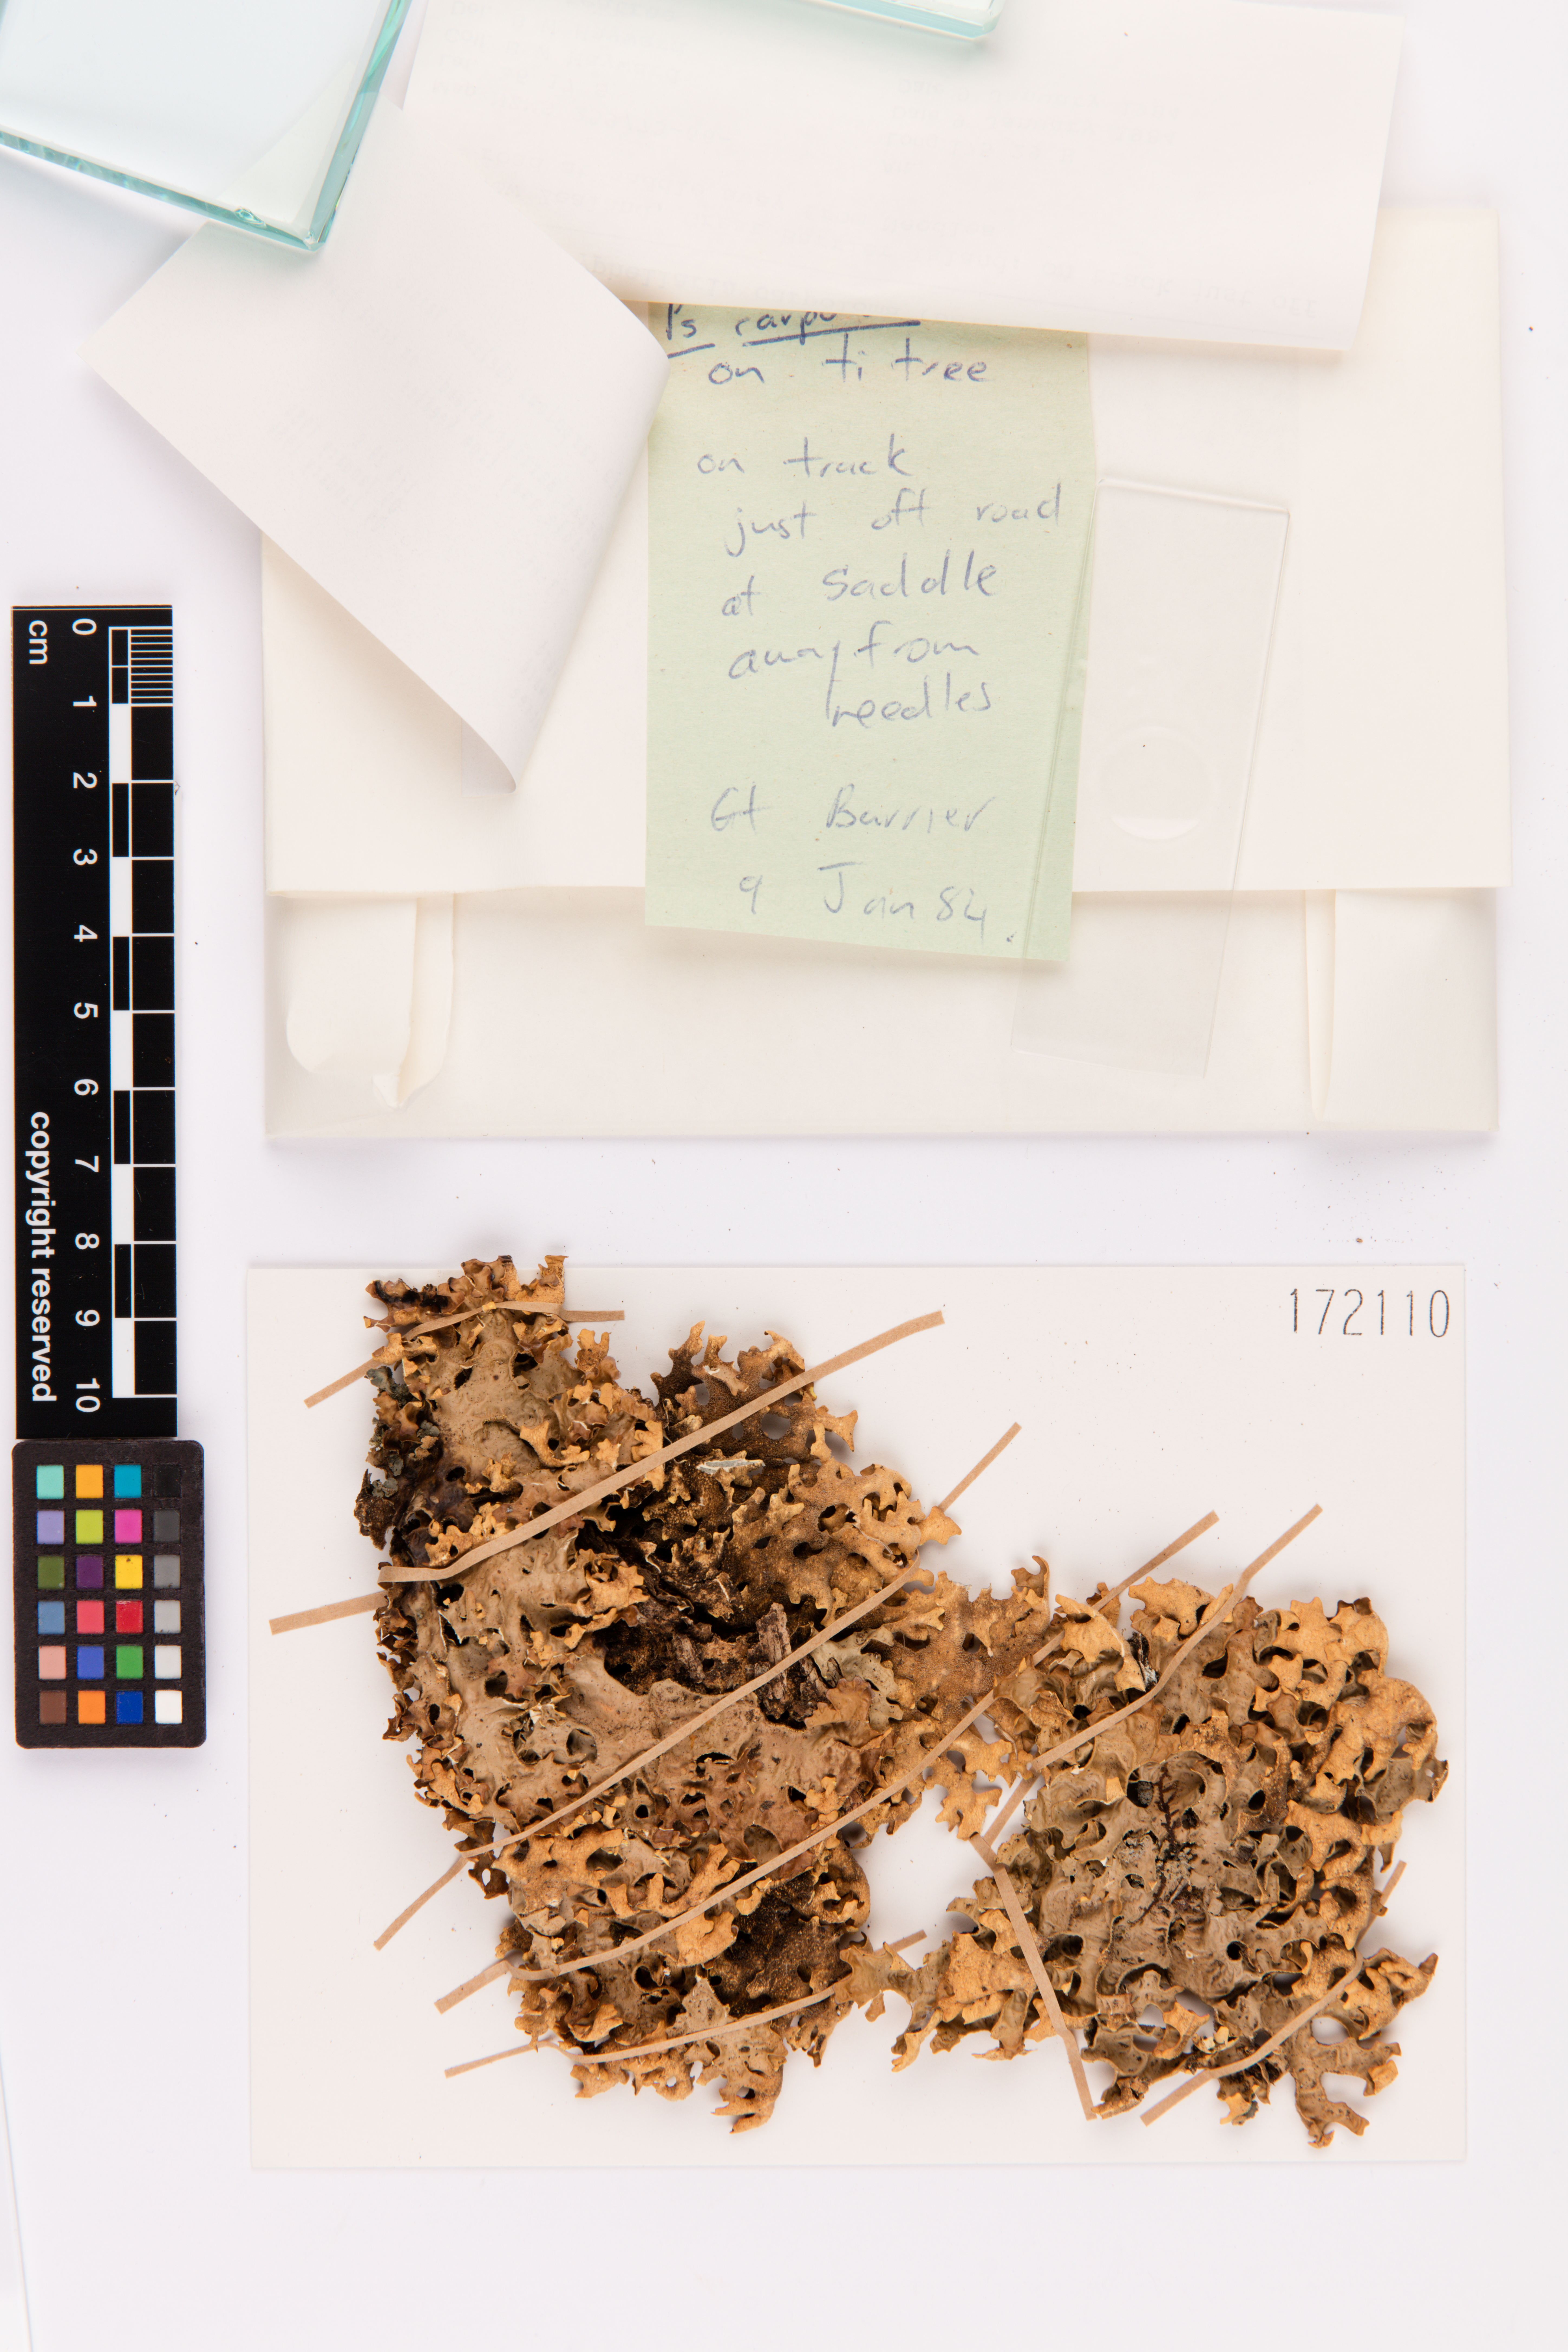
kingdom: Fungi
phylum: Ascomycota
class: Lecanoromycetes
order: Peltigerales
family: Lobariaceae
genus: Pseudocyphellaria
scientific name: Pseudocyphellaria carpoloma
